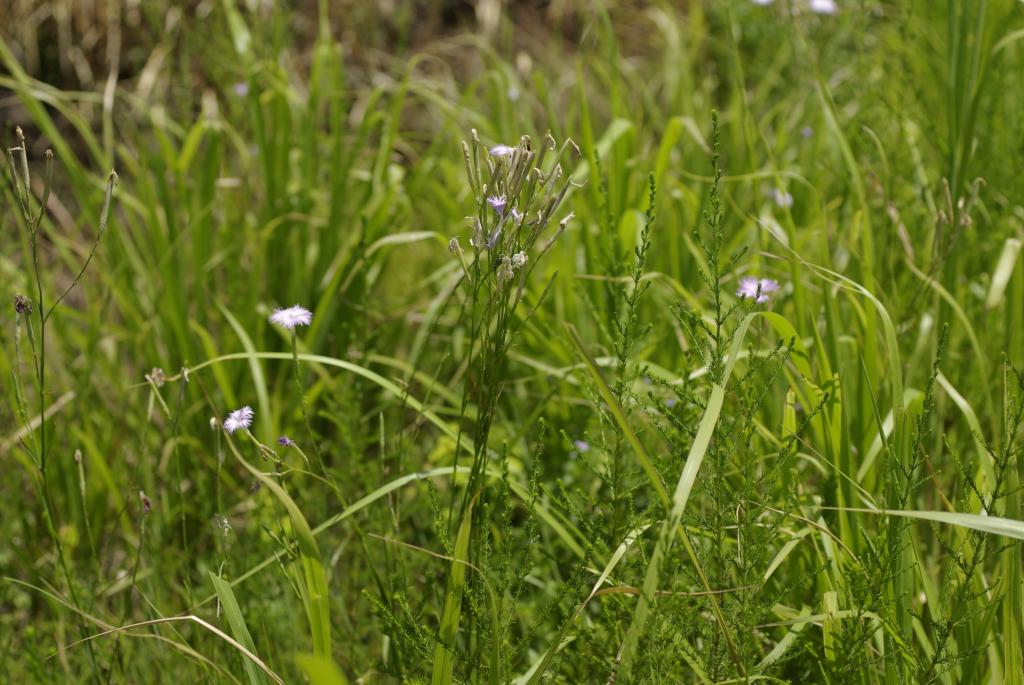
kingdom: Plantae
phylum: Tracheophyta
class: Magnoliopsida
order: Caryophyllales
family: Caryophyllaceae
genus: Dianthus
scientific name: Dianthus longicalyx
